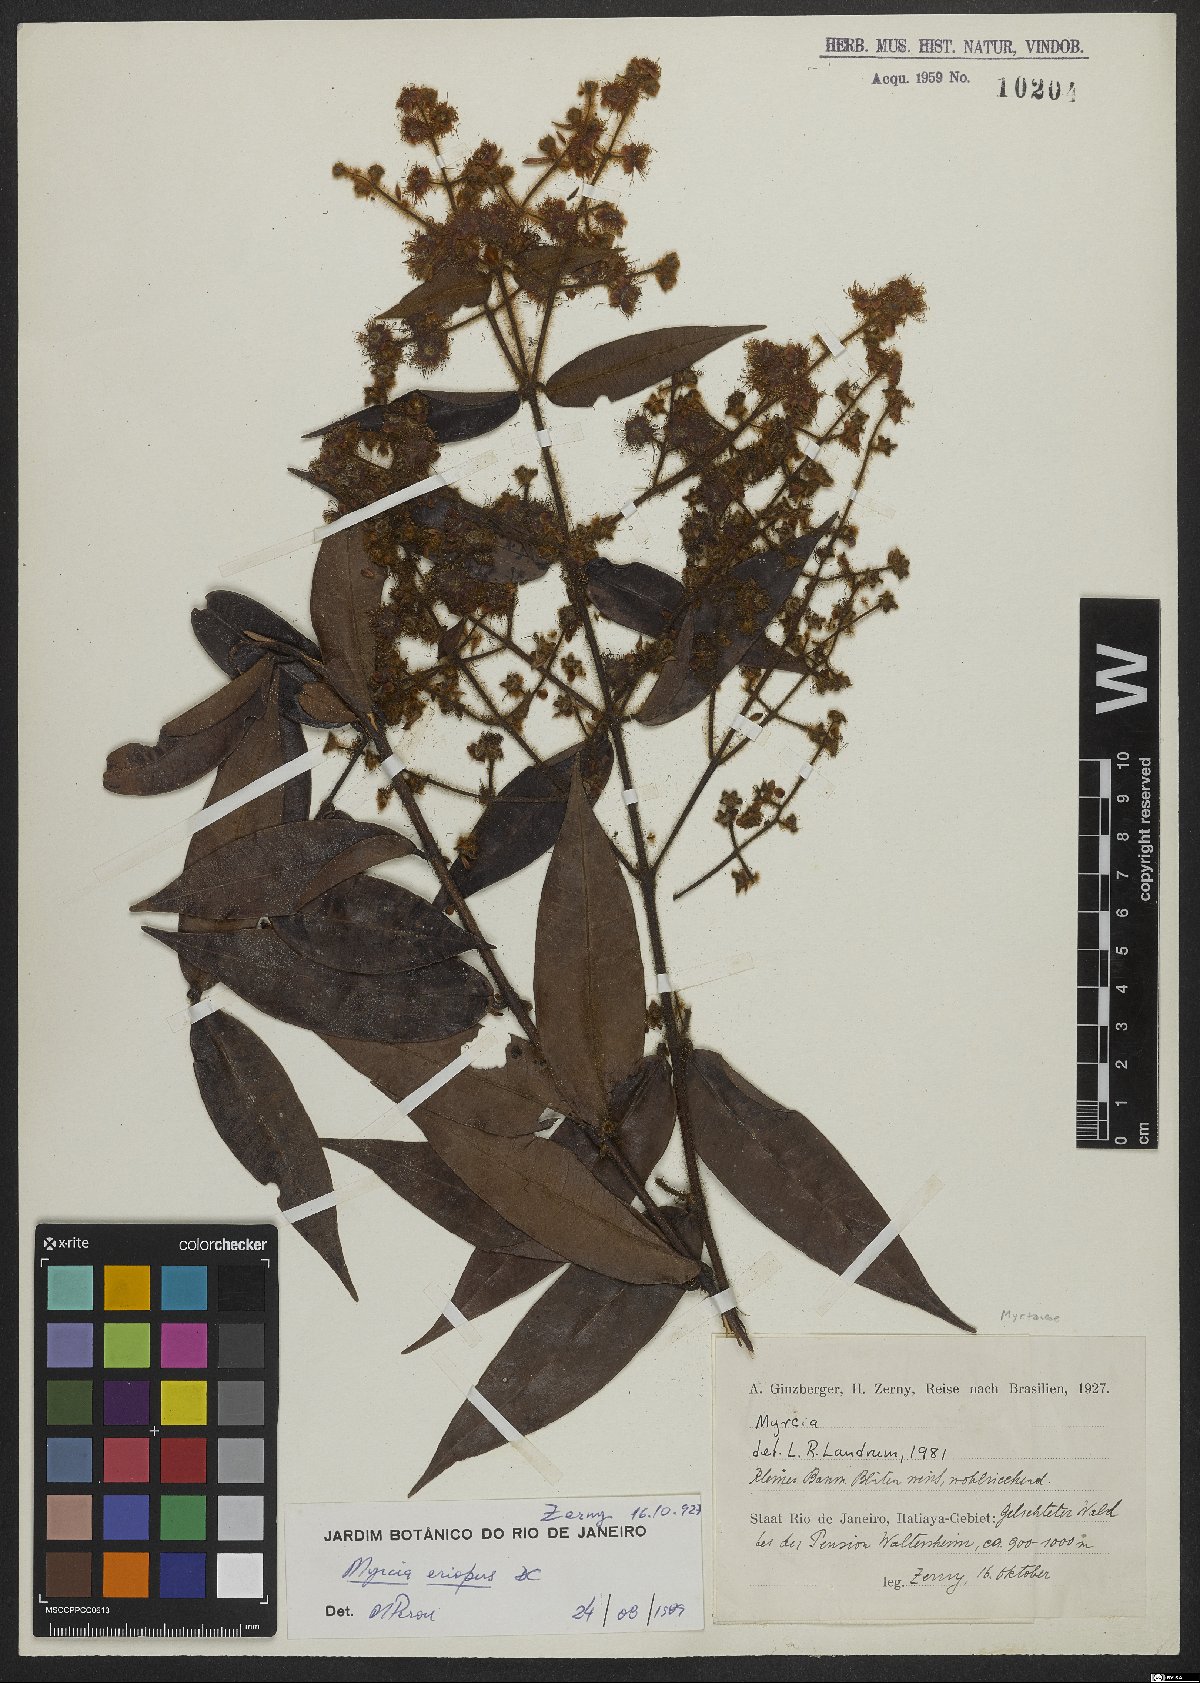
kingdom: Plantae
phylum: Tracheophyta
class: Magnoliopsida
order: Myrtales
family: Myrtaceae
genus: Myrcia
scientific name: Myrcia eriopus
